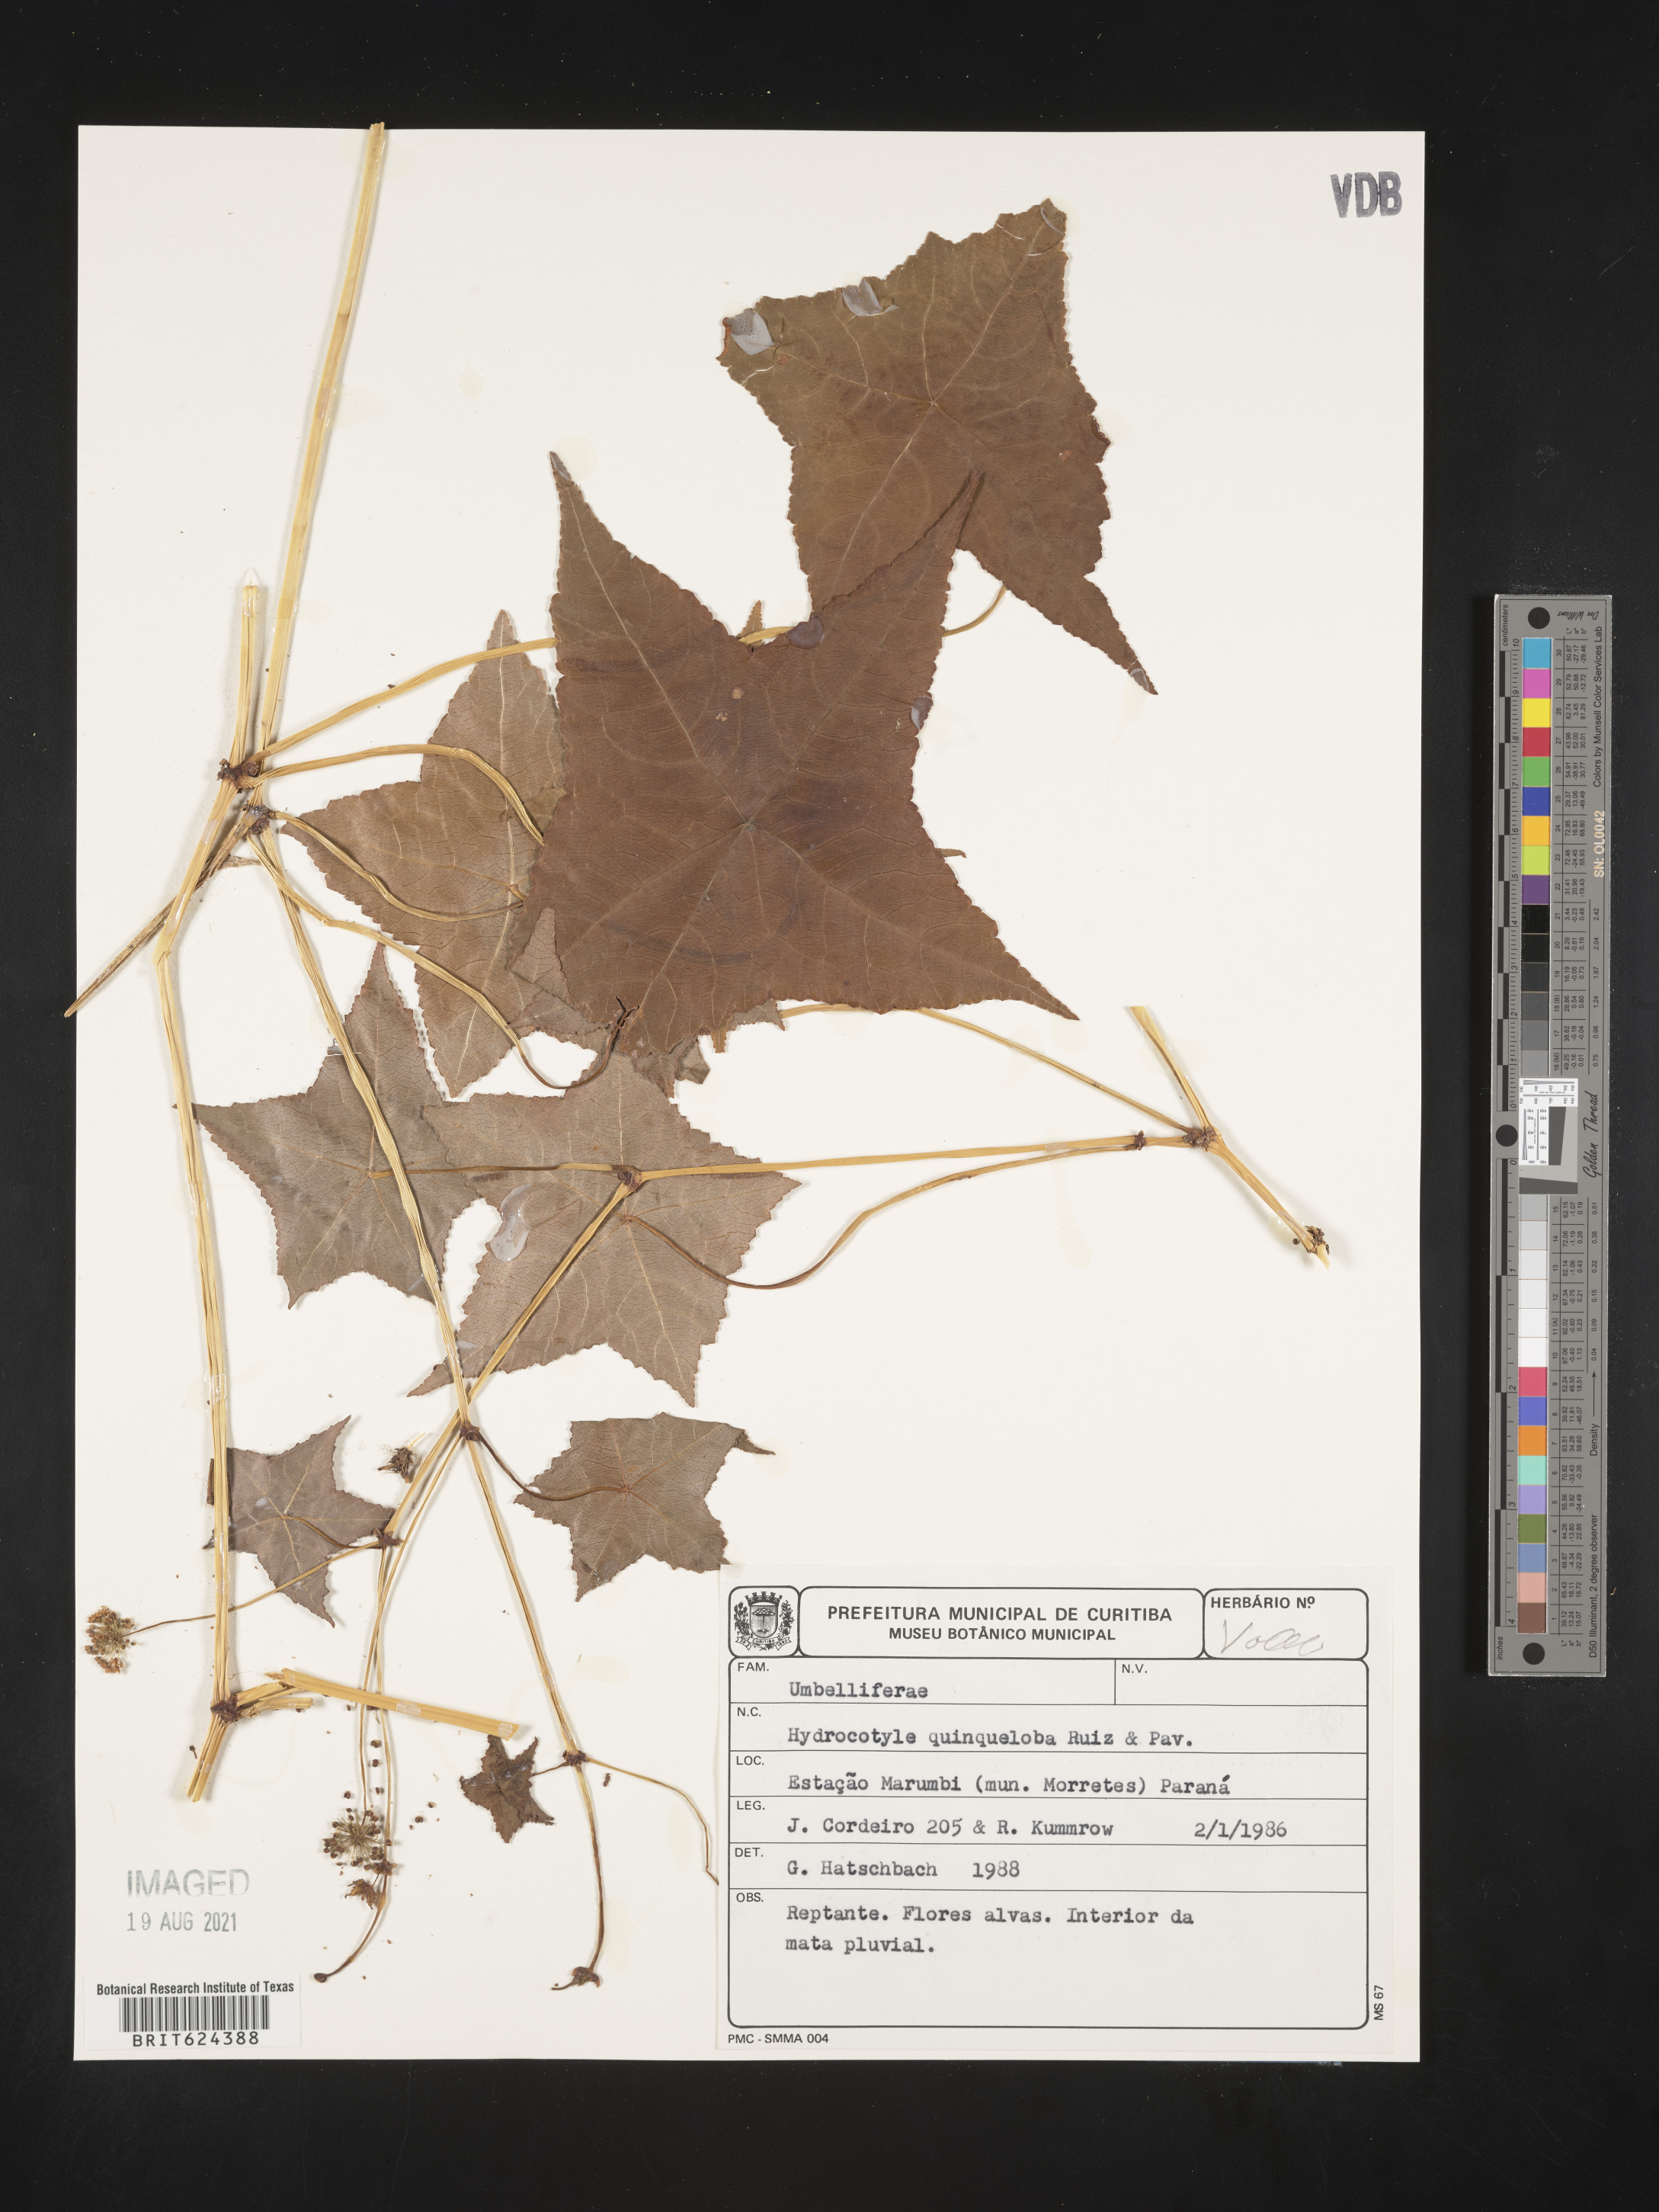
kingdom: Plantae
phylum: Tracheophyta
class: Magnoliopsida
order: Apiales
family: Araliaceae
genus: Hydrocotyle
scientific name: Hydrocotyle quinqueloba
